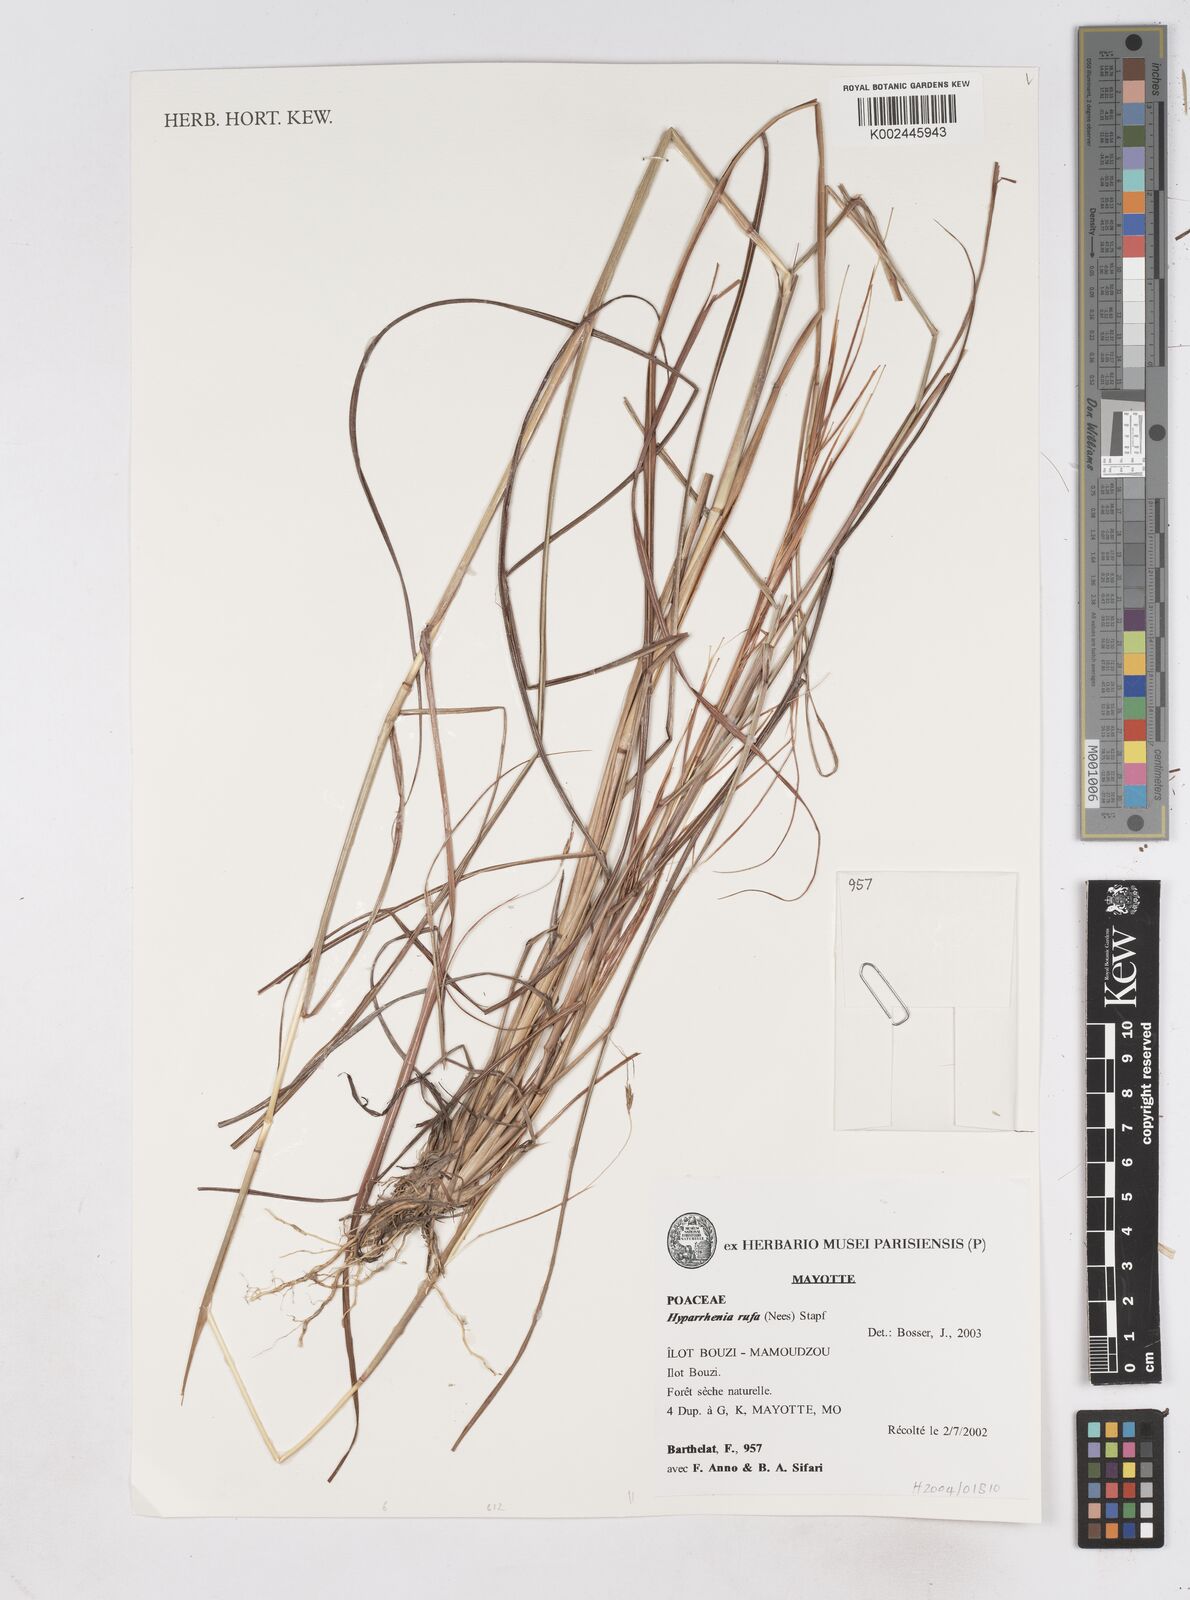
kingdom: Plantae
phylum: Tracheophyta
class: Liliopsida
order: Poales
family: Poaceae
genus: Hyperthelia
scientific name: Hyperthelia
